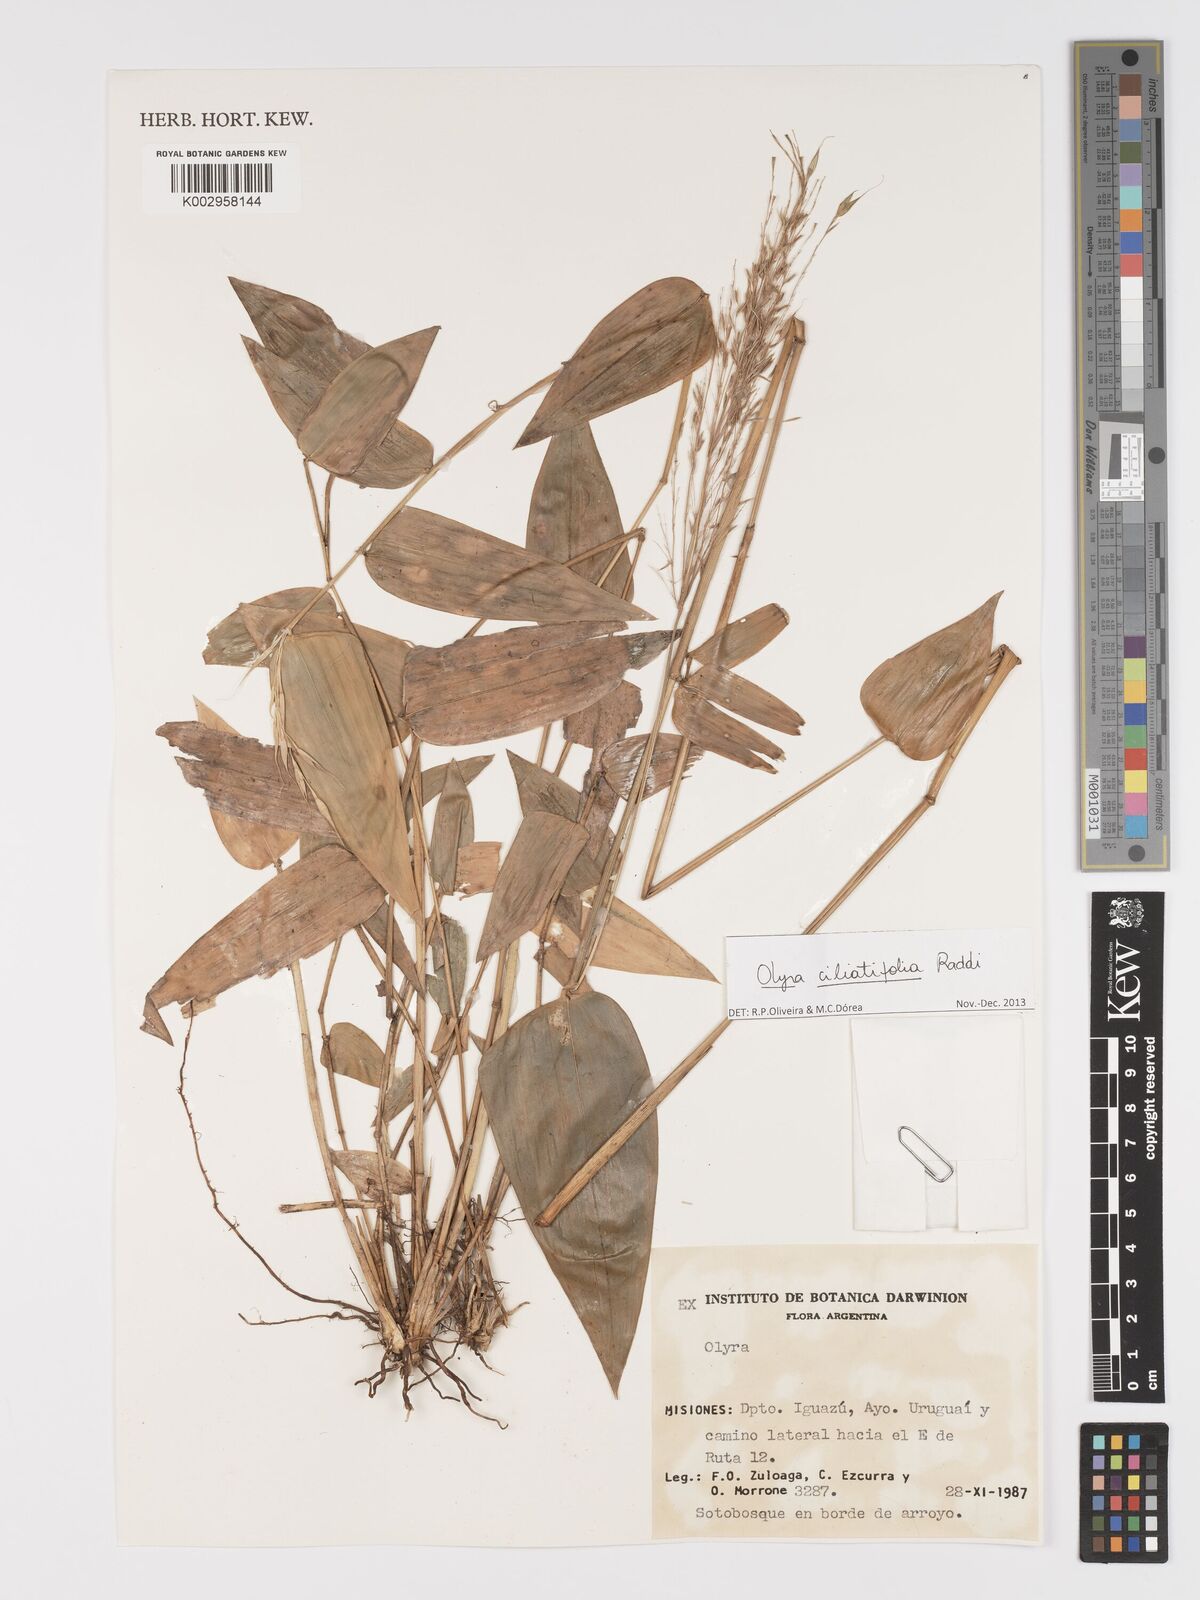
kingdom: Plantae
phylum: Tracheophyta
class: Liliopsida
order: Poales
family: Poaceae
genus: Olyra
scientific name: Olyra ciliatifolia
